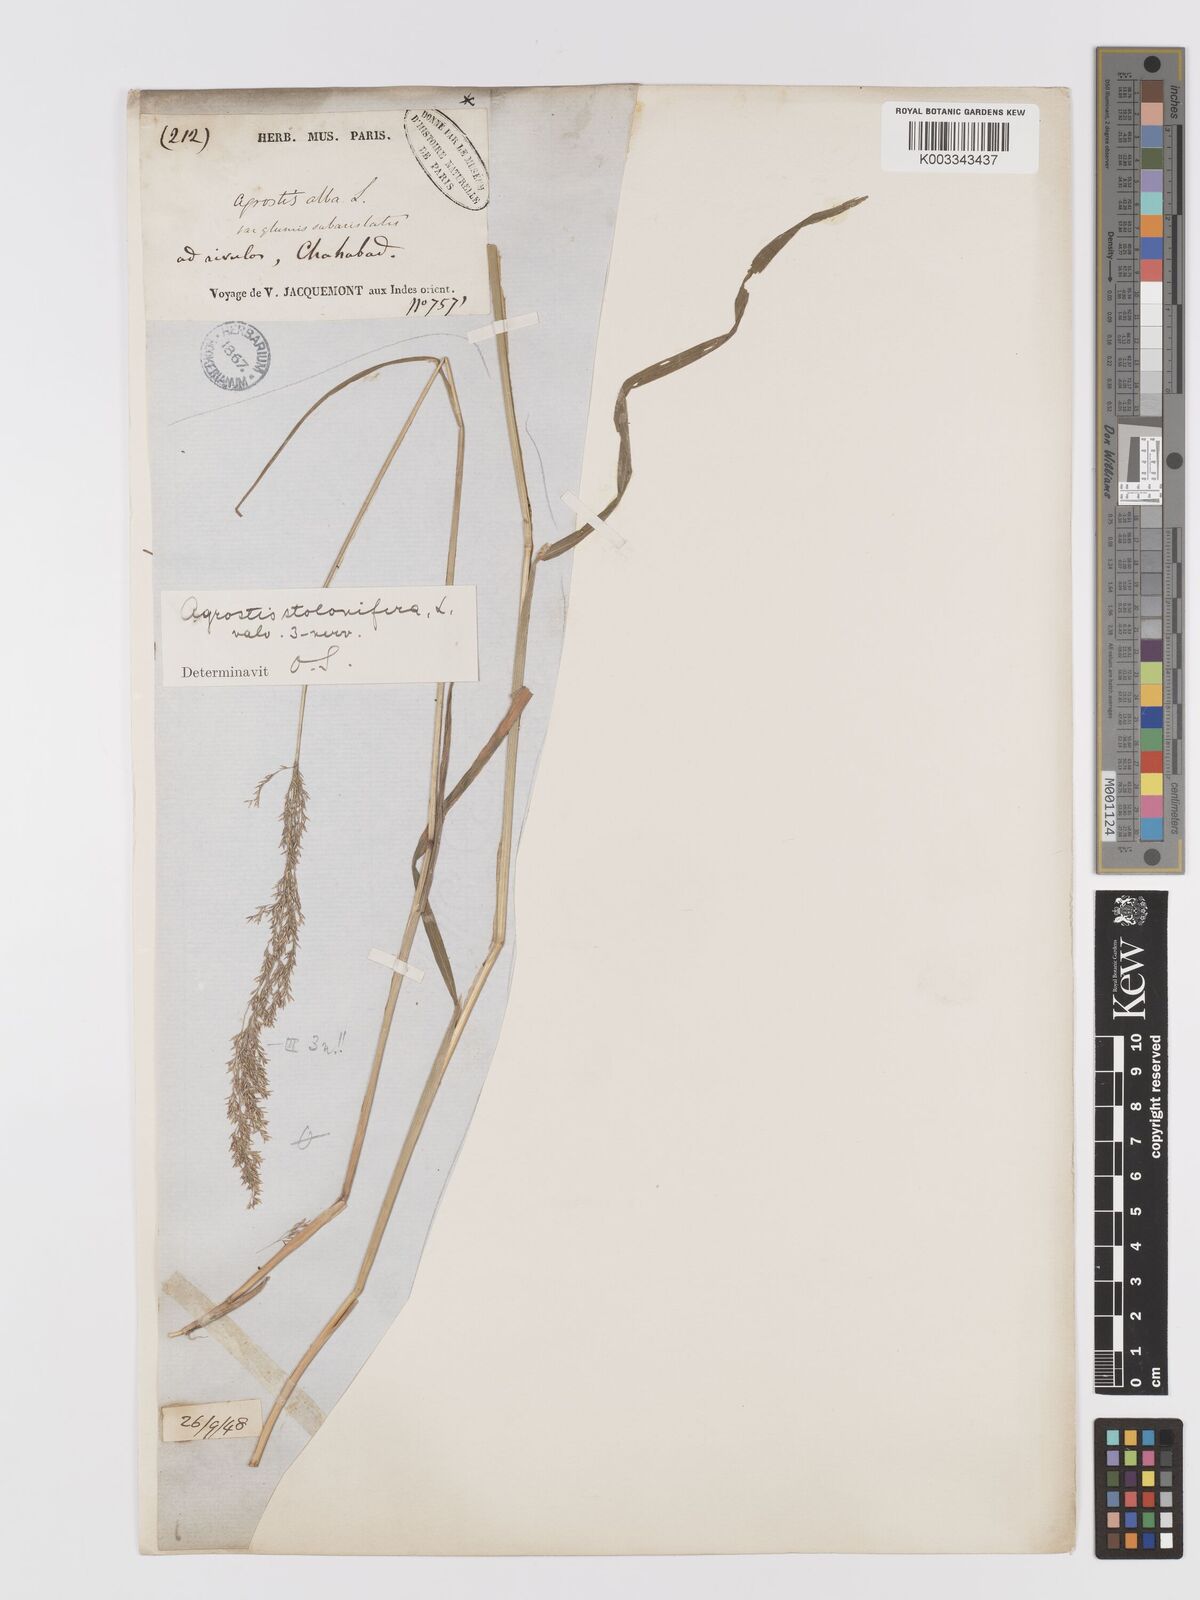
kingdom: Plantae
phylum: Tracheophyta
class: Liliopsida
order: Poales
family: Poaceae
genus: Agrostis
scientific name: Agrostis stolonifera
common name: Creeping bentgrass
